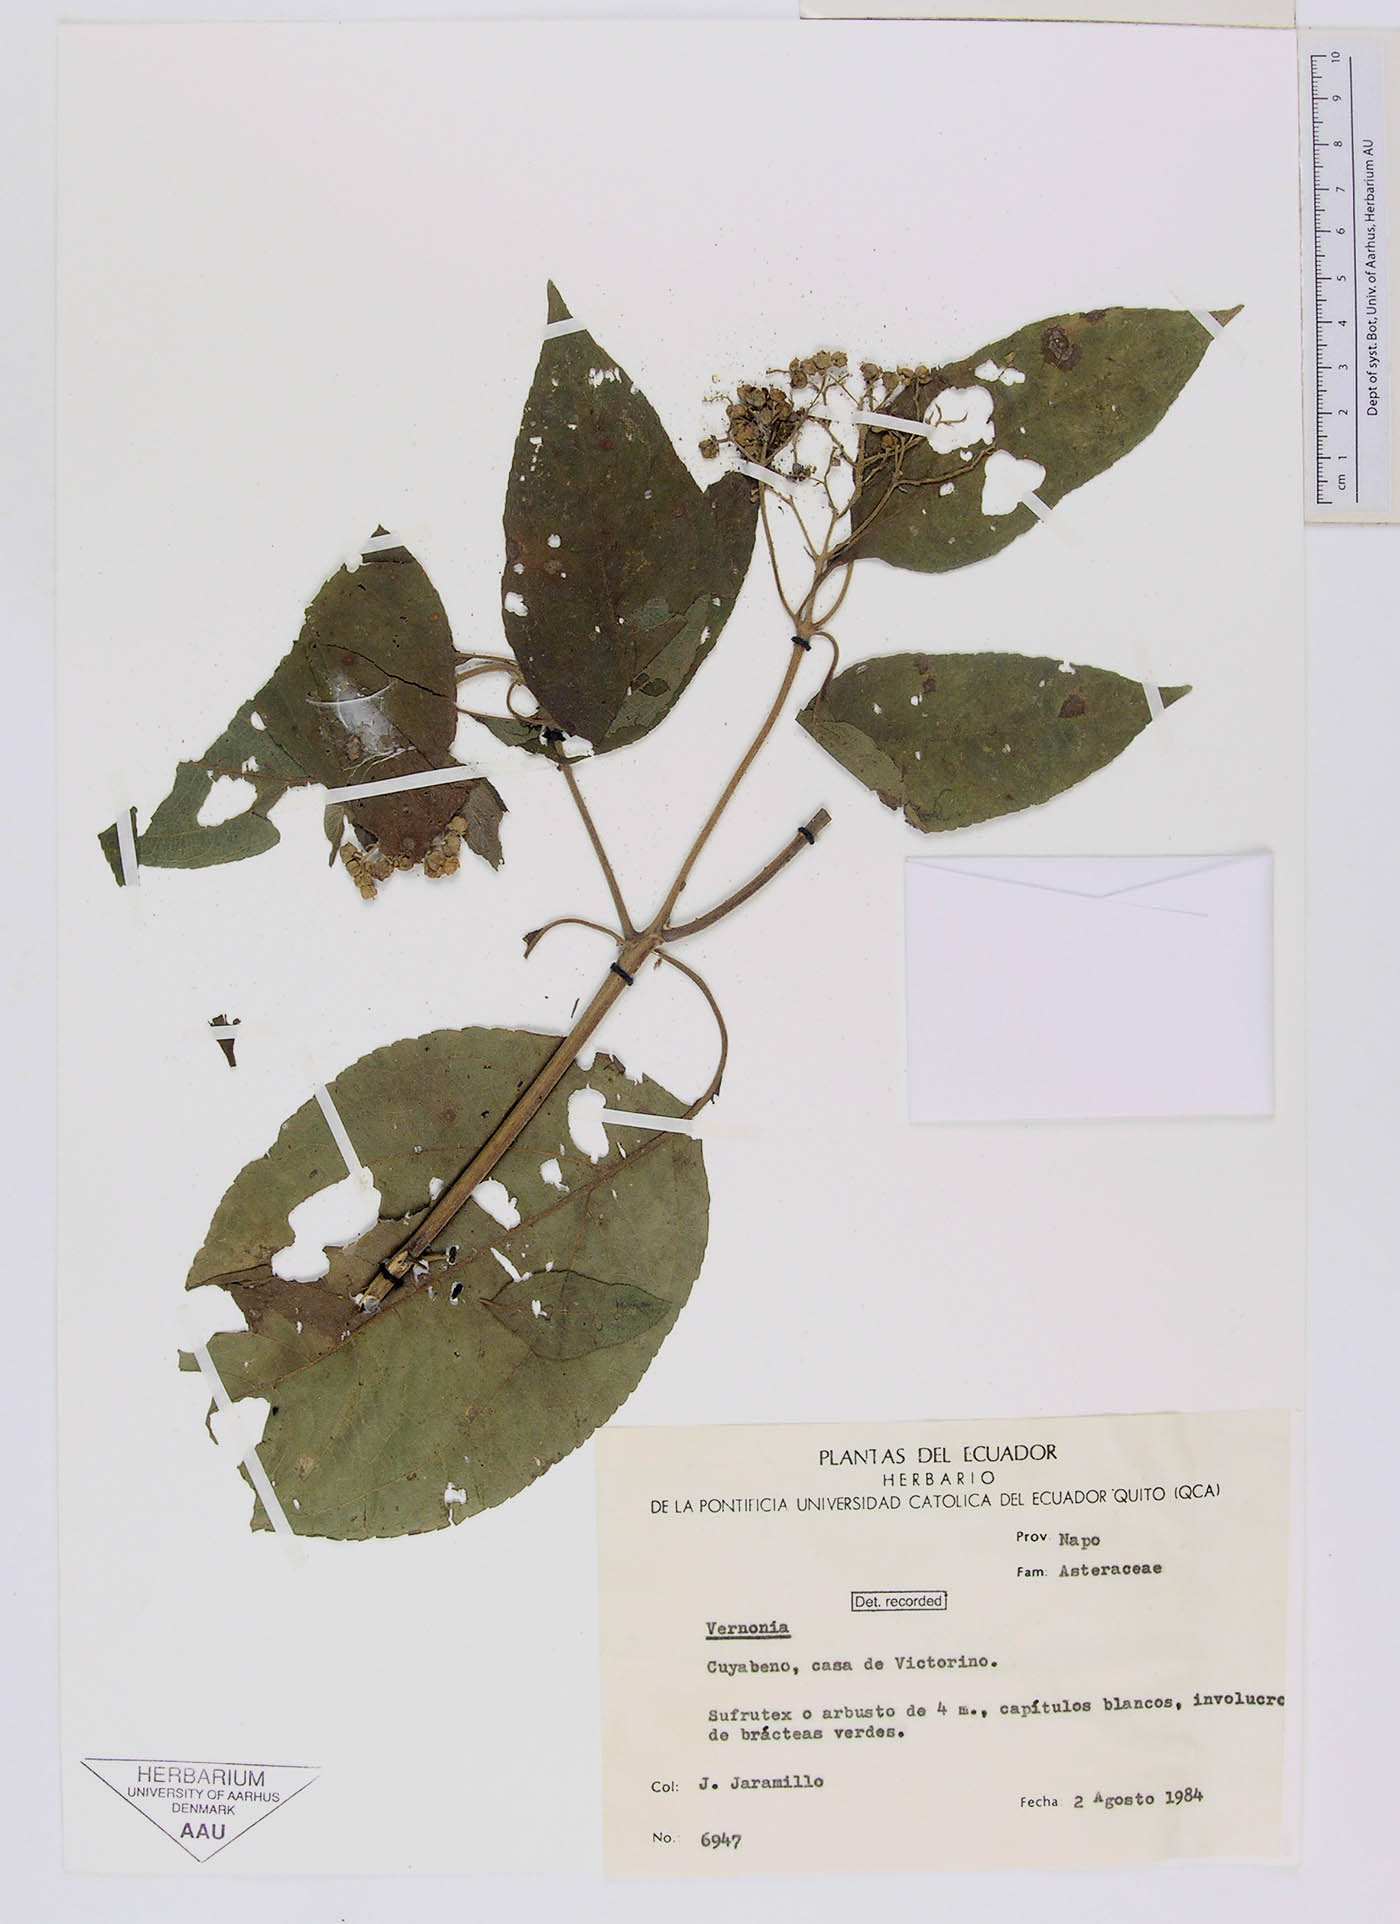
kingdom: Plantae
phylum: Tracheophyta
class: Magnoliopsida
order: Asterales
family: Asteraceae
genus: Clibadium
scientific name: Clibadium glabrescens
